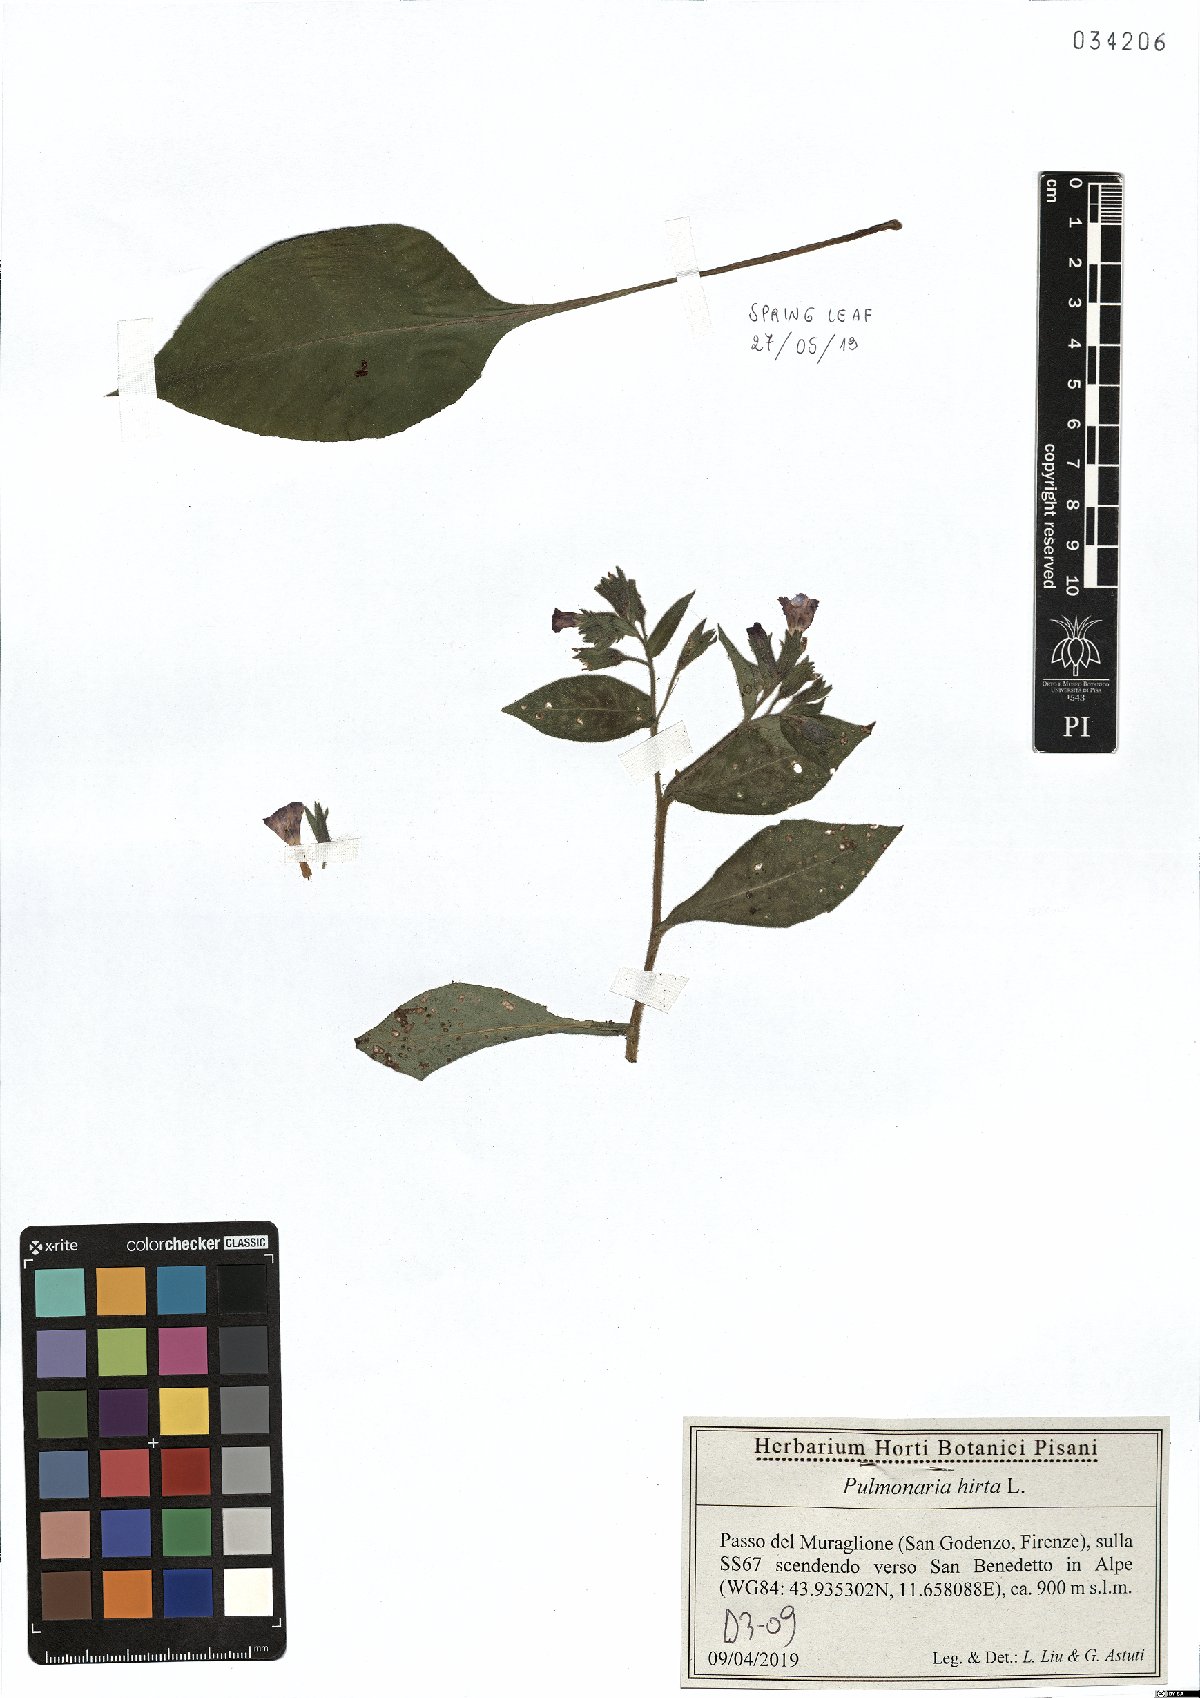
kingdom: Plantae
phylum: Tracheophyta
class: Magnoliopsida
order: Boraginales
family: Boraginaceae
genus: Pulmonaria
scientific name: Pulmonaria hirta
